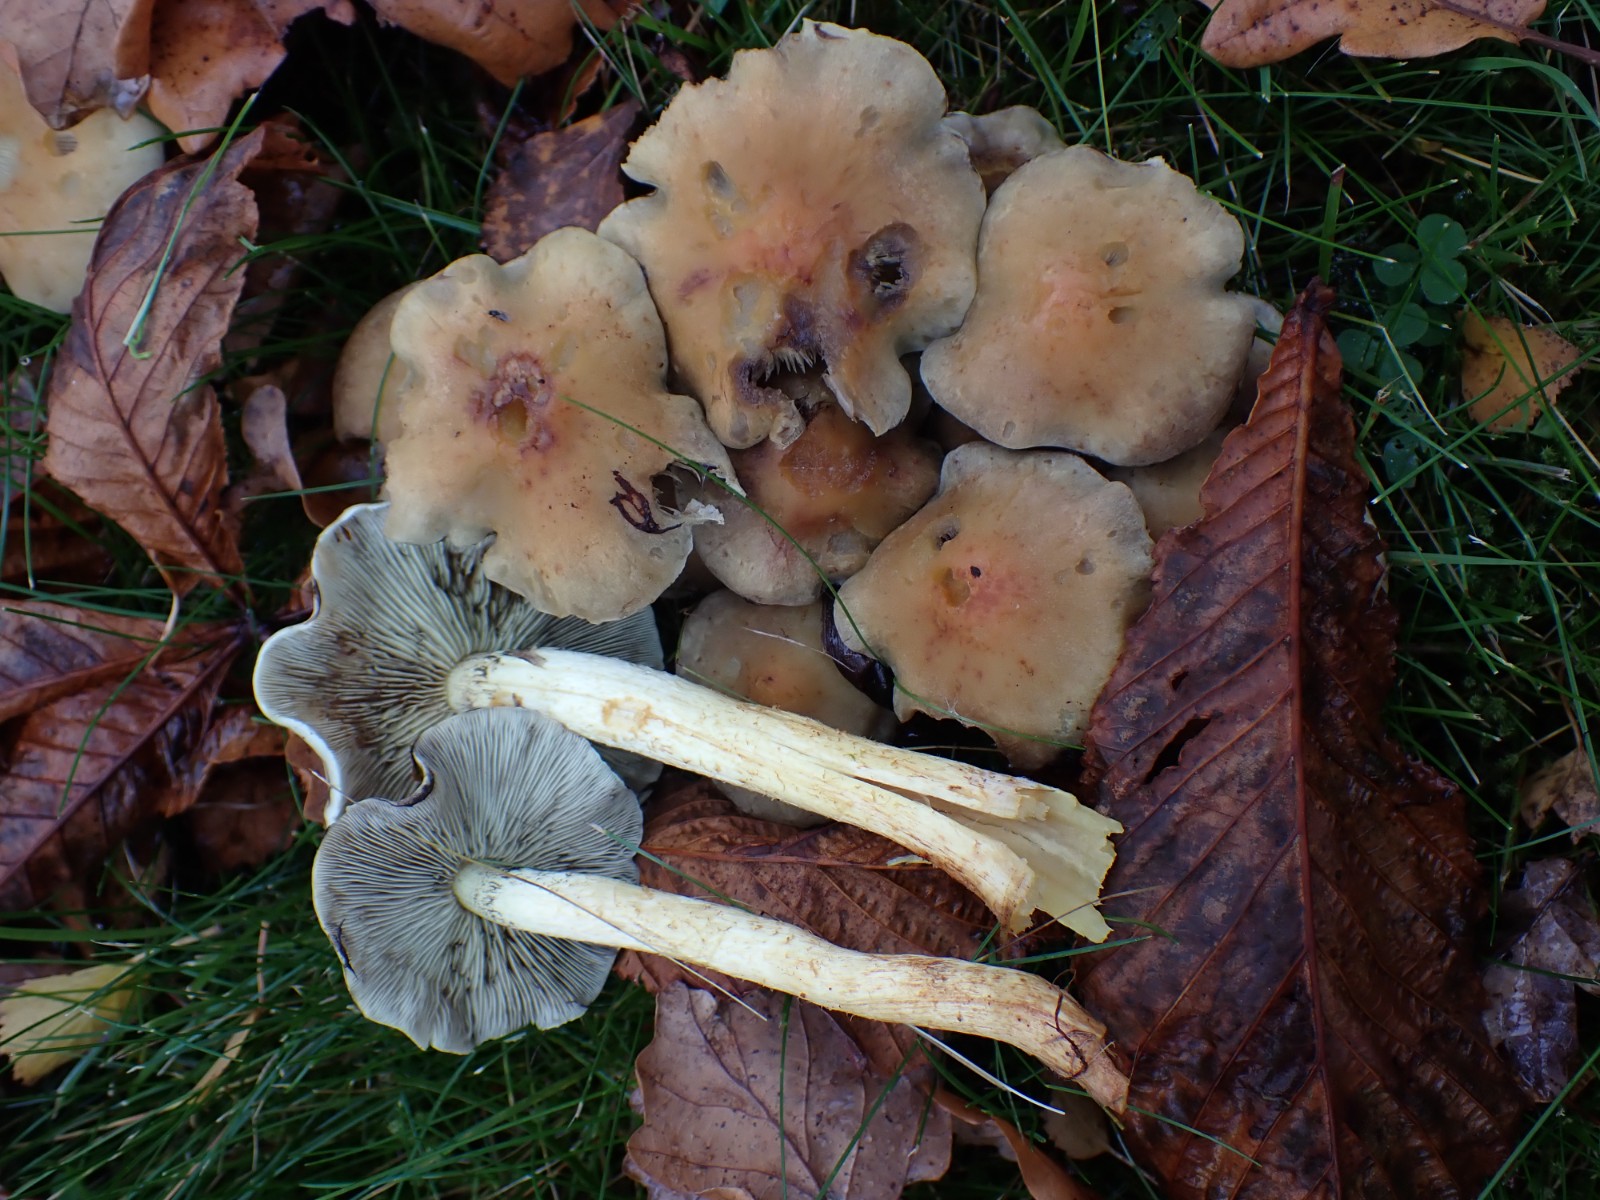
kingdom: Fungi
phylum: Basidiomycota
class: Agaricomycetes
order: Agaricales
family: Strophariaceae
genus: Hypholoma
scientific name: Hypholoma fasciculare
